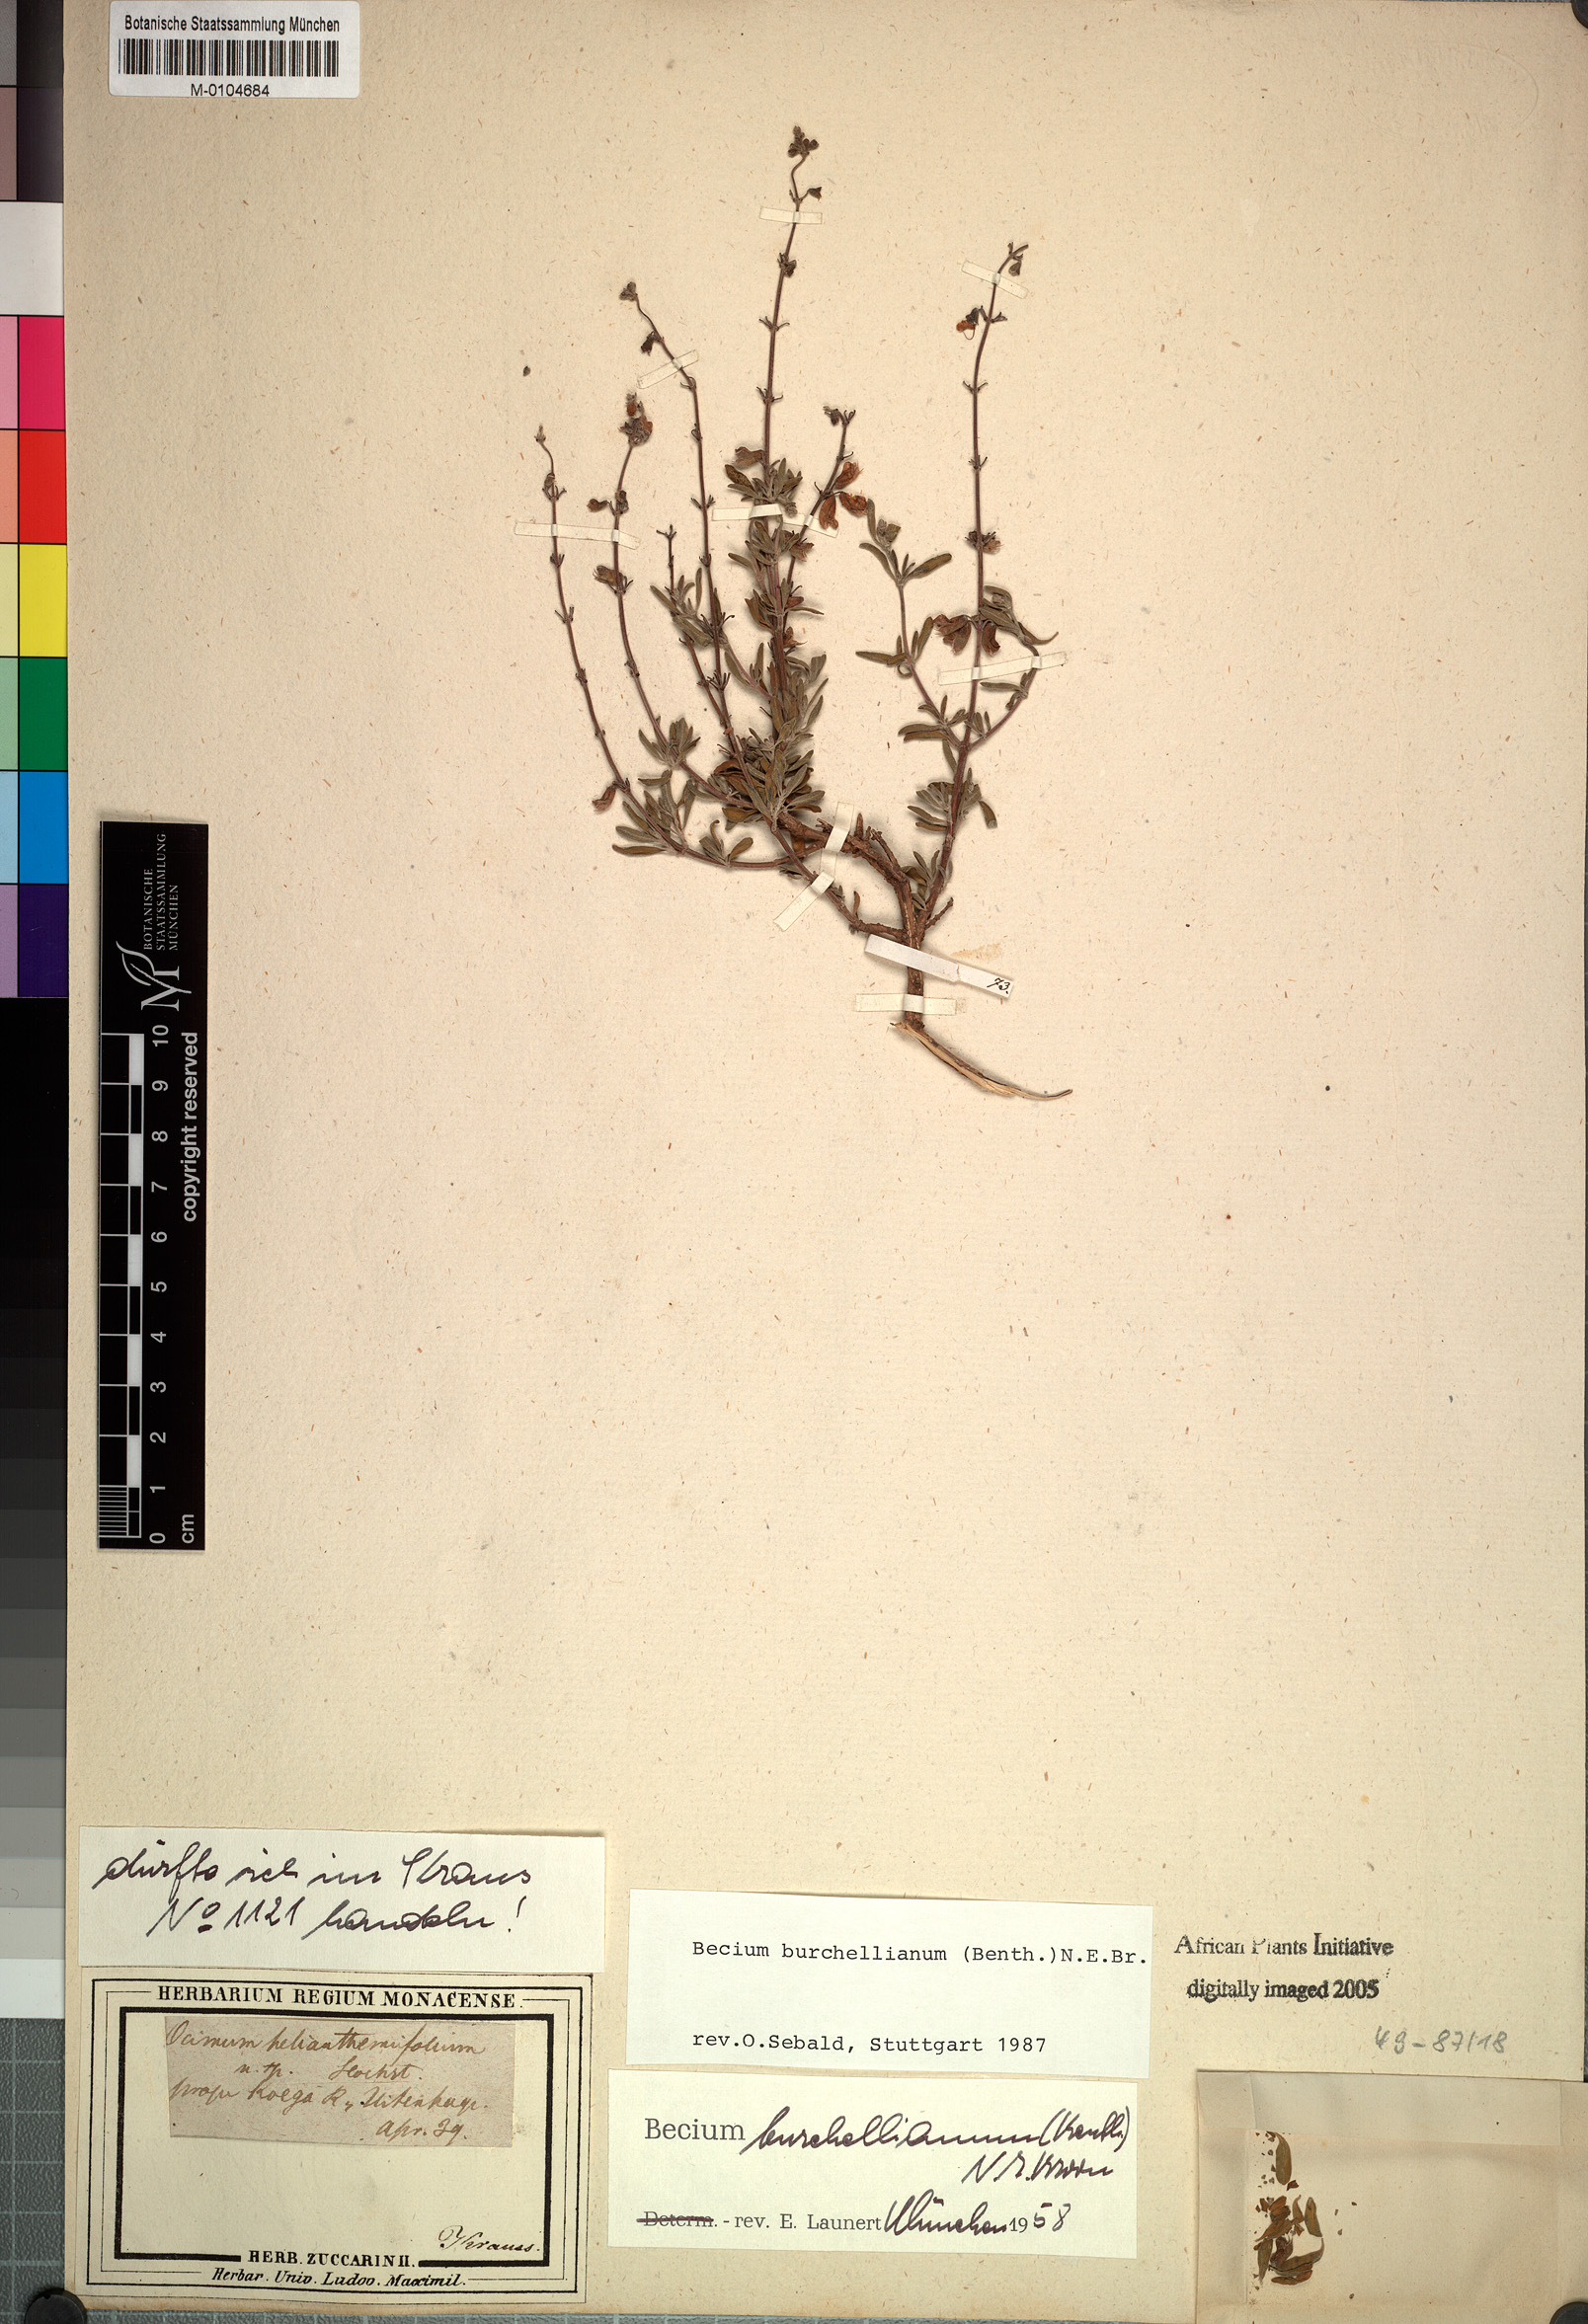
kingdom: Plantae
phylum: Tracheophyta
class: Magnoliopsida
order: Lamiales
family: Lamiaceae
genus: Ocimum
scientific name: Ocimum burchellianum
